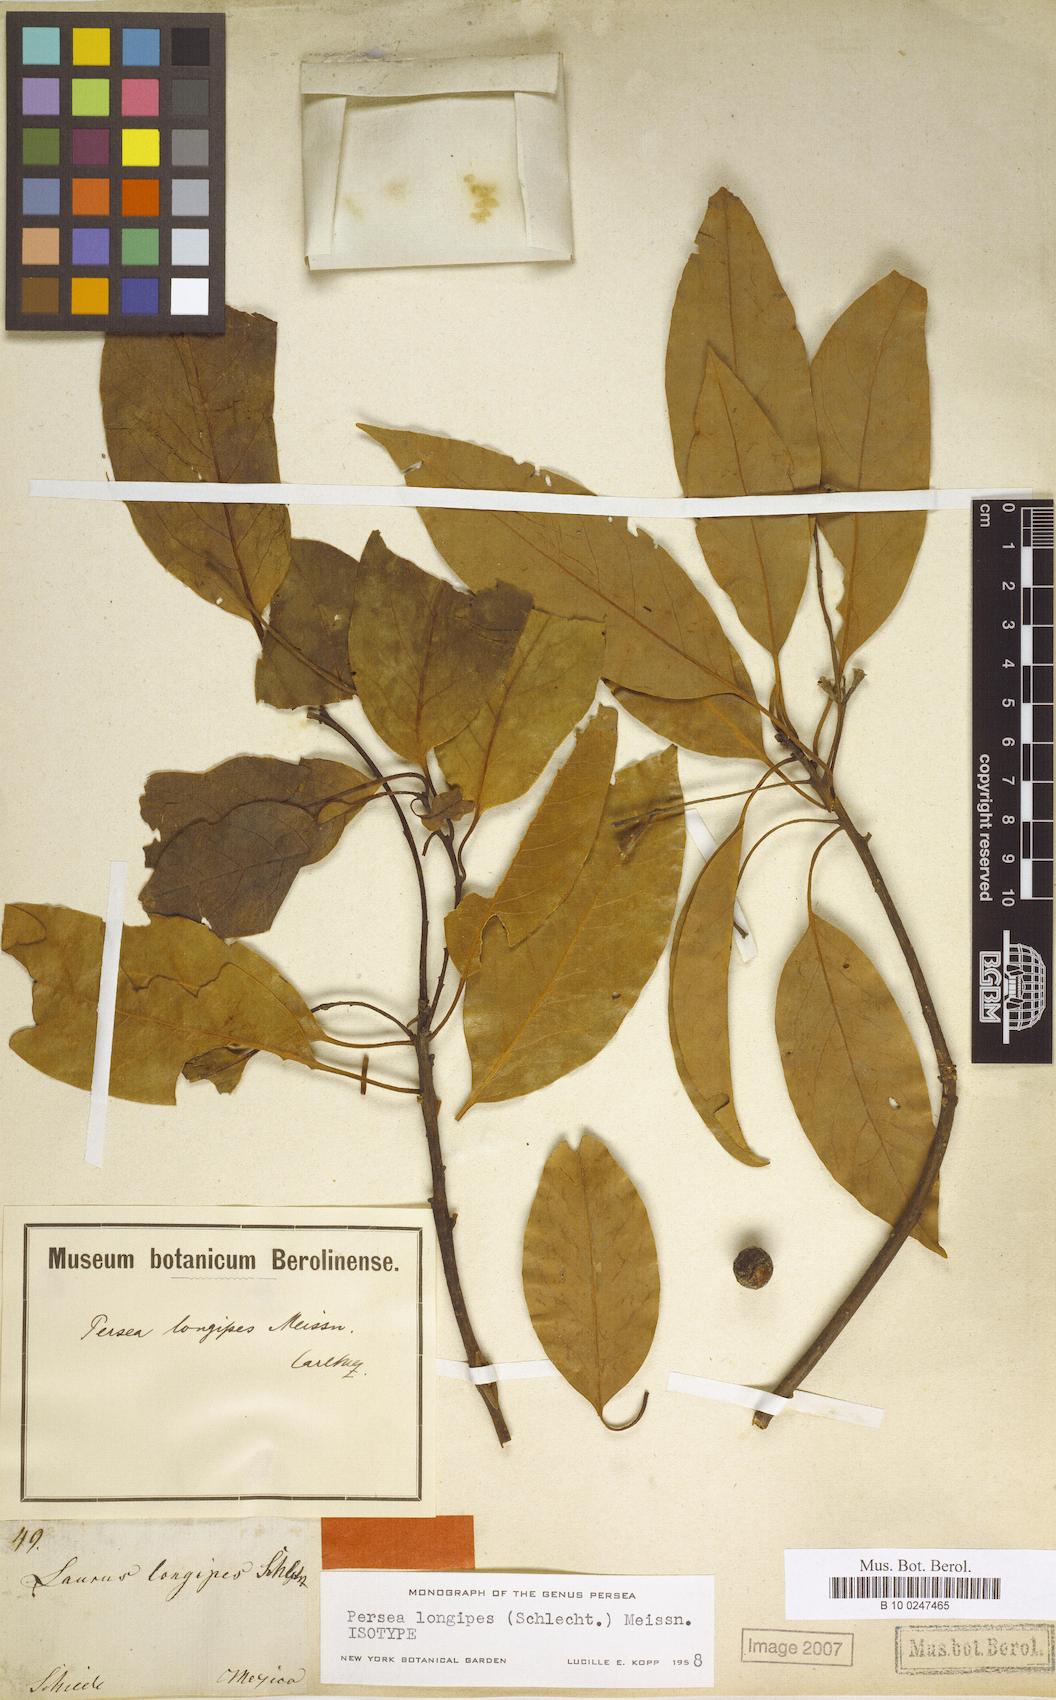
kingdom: Plantae
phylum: Tracheophyta
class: Magnoliopsida
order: Laurales
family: Lauraceae
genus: Persea
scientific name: Persea longipes
